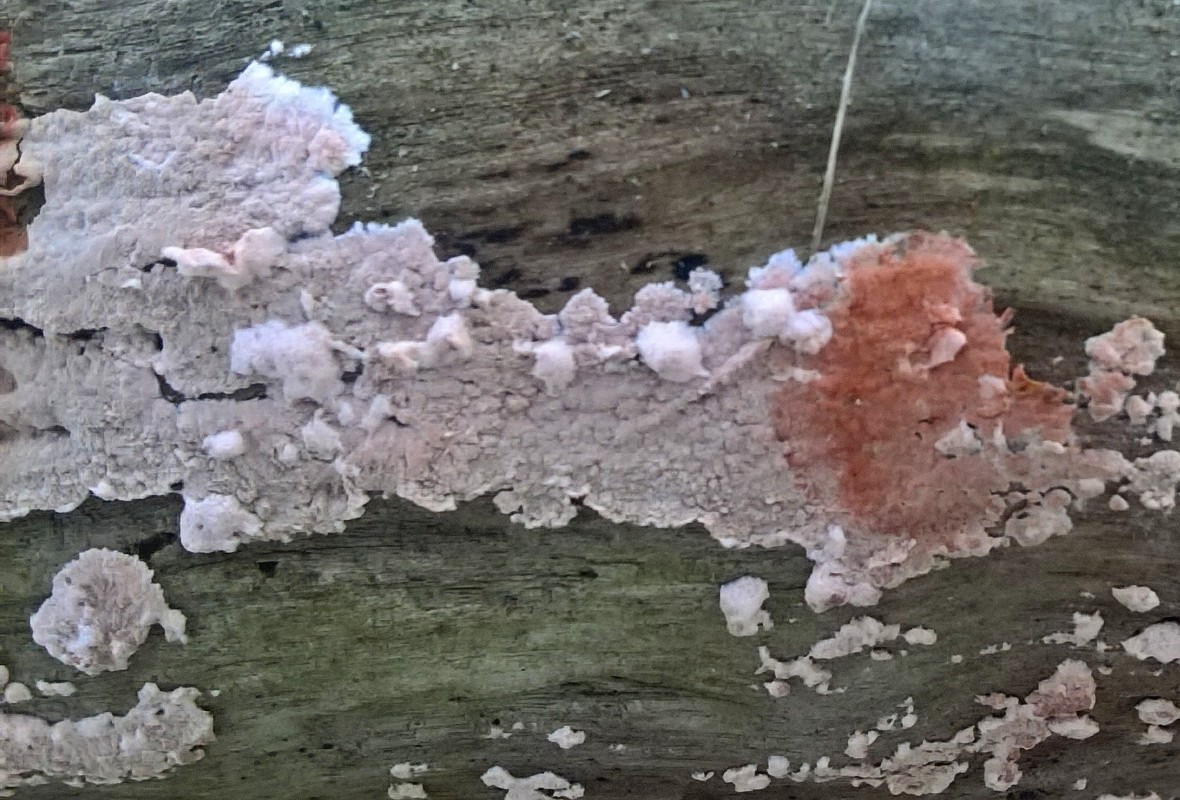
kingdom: Fungi
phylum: Basidiomycota
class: Agaricomycetes
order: Corticiales
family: Corticiaceae
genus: Corticium
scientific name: Corticium roseum
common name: rosa barkskind
